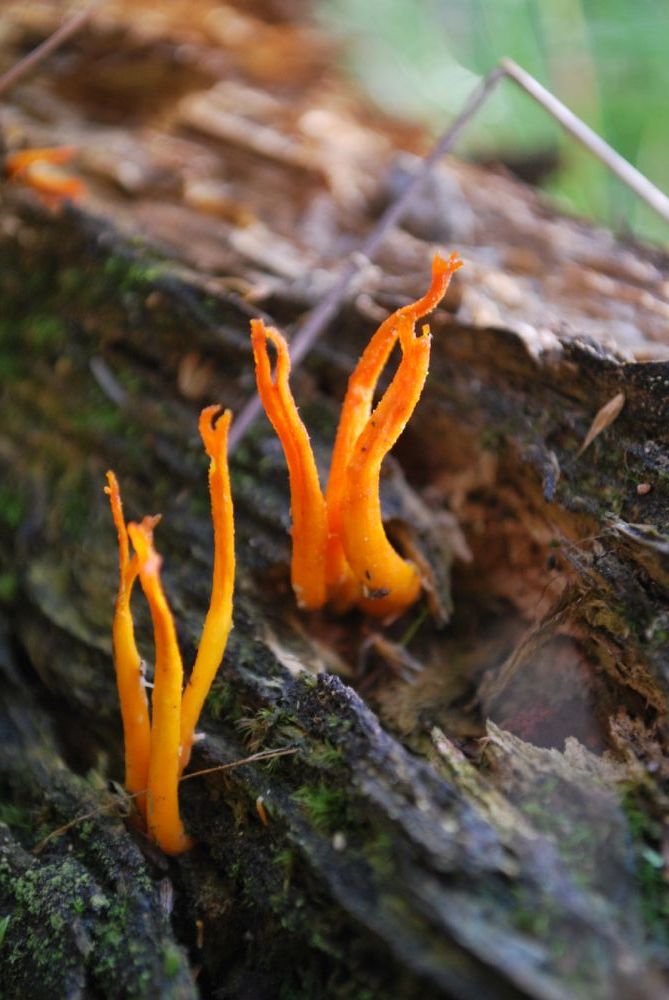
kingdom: Fungi
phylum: Basidiomycota
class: Dacrymycetes
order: Dacrymycetales
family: Dacrymycetaceae
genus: Calocera
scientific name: Calocera viscosa
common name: almindelig guldgaffel
